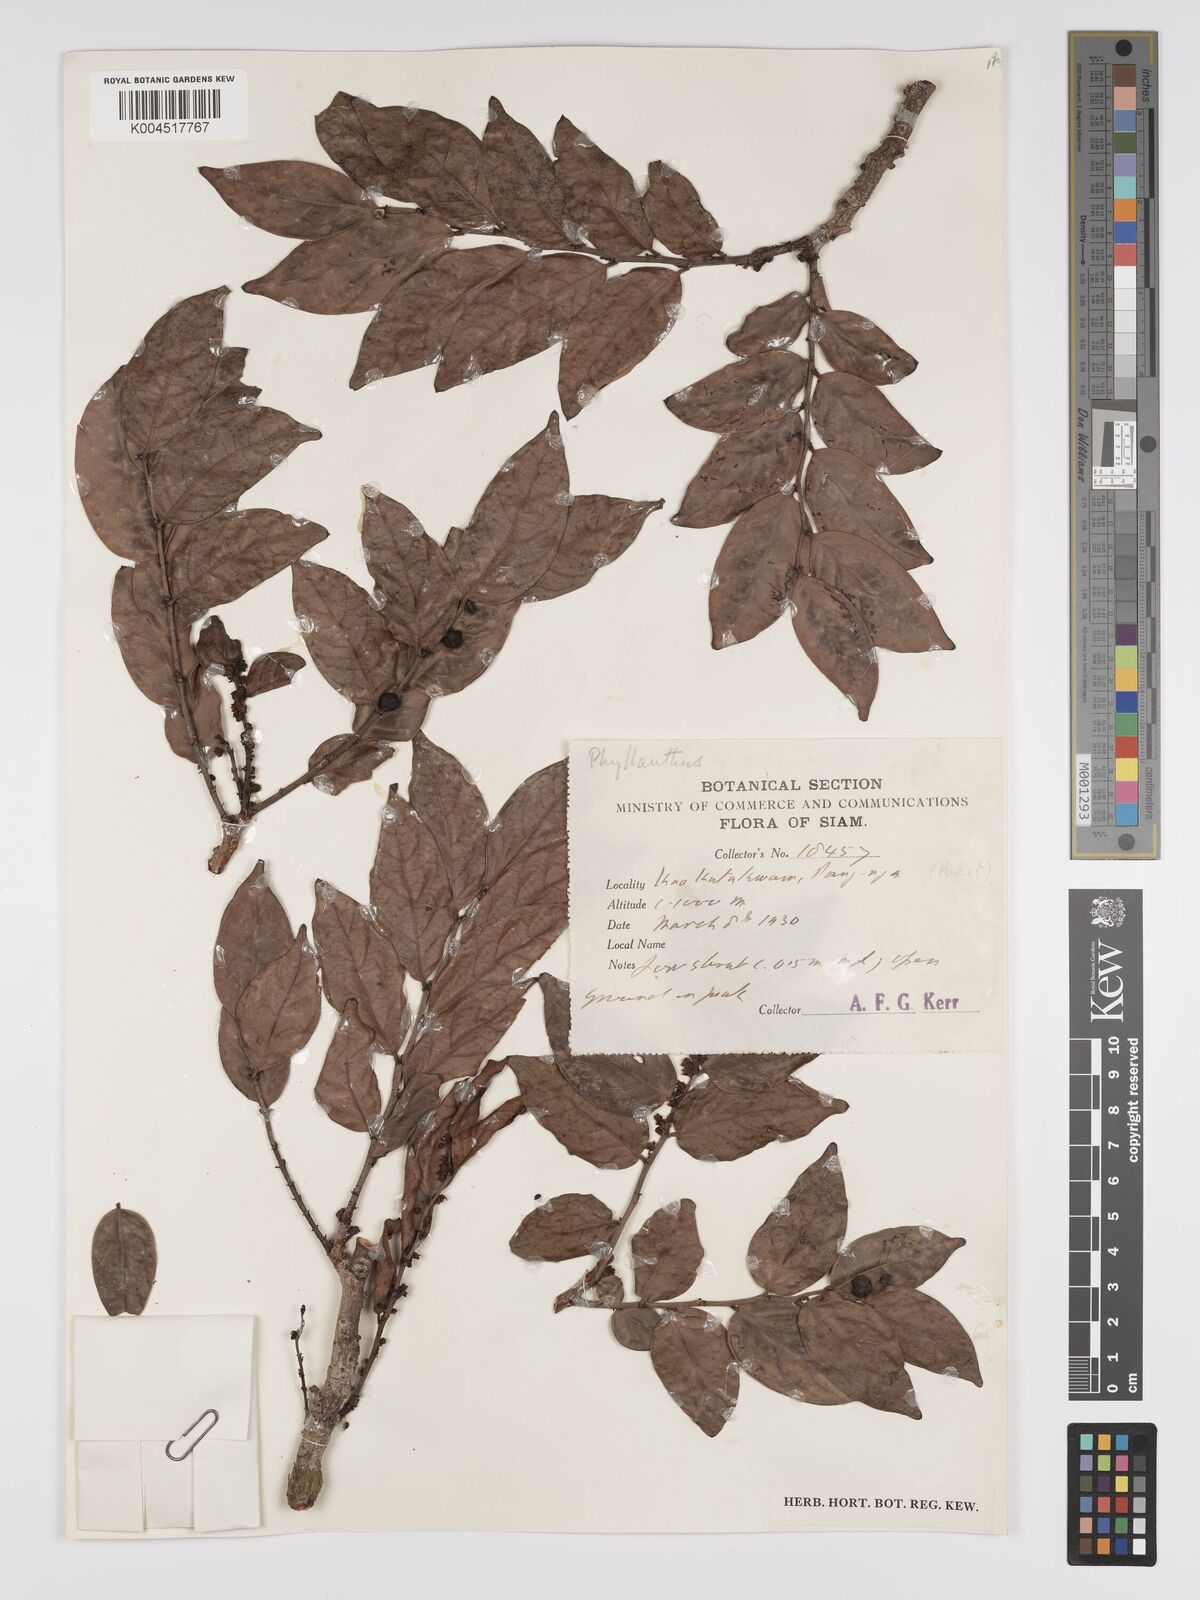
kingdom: Plantae
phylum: Tracheophyta
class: Magnoliopsida
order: Malpighiales
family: Phyllanthaceae
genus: Phyllanthus
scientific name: Phyllanthus pachyphyllus
